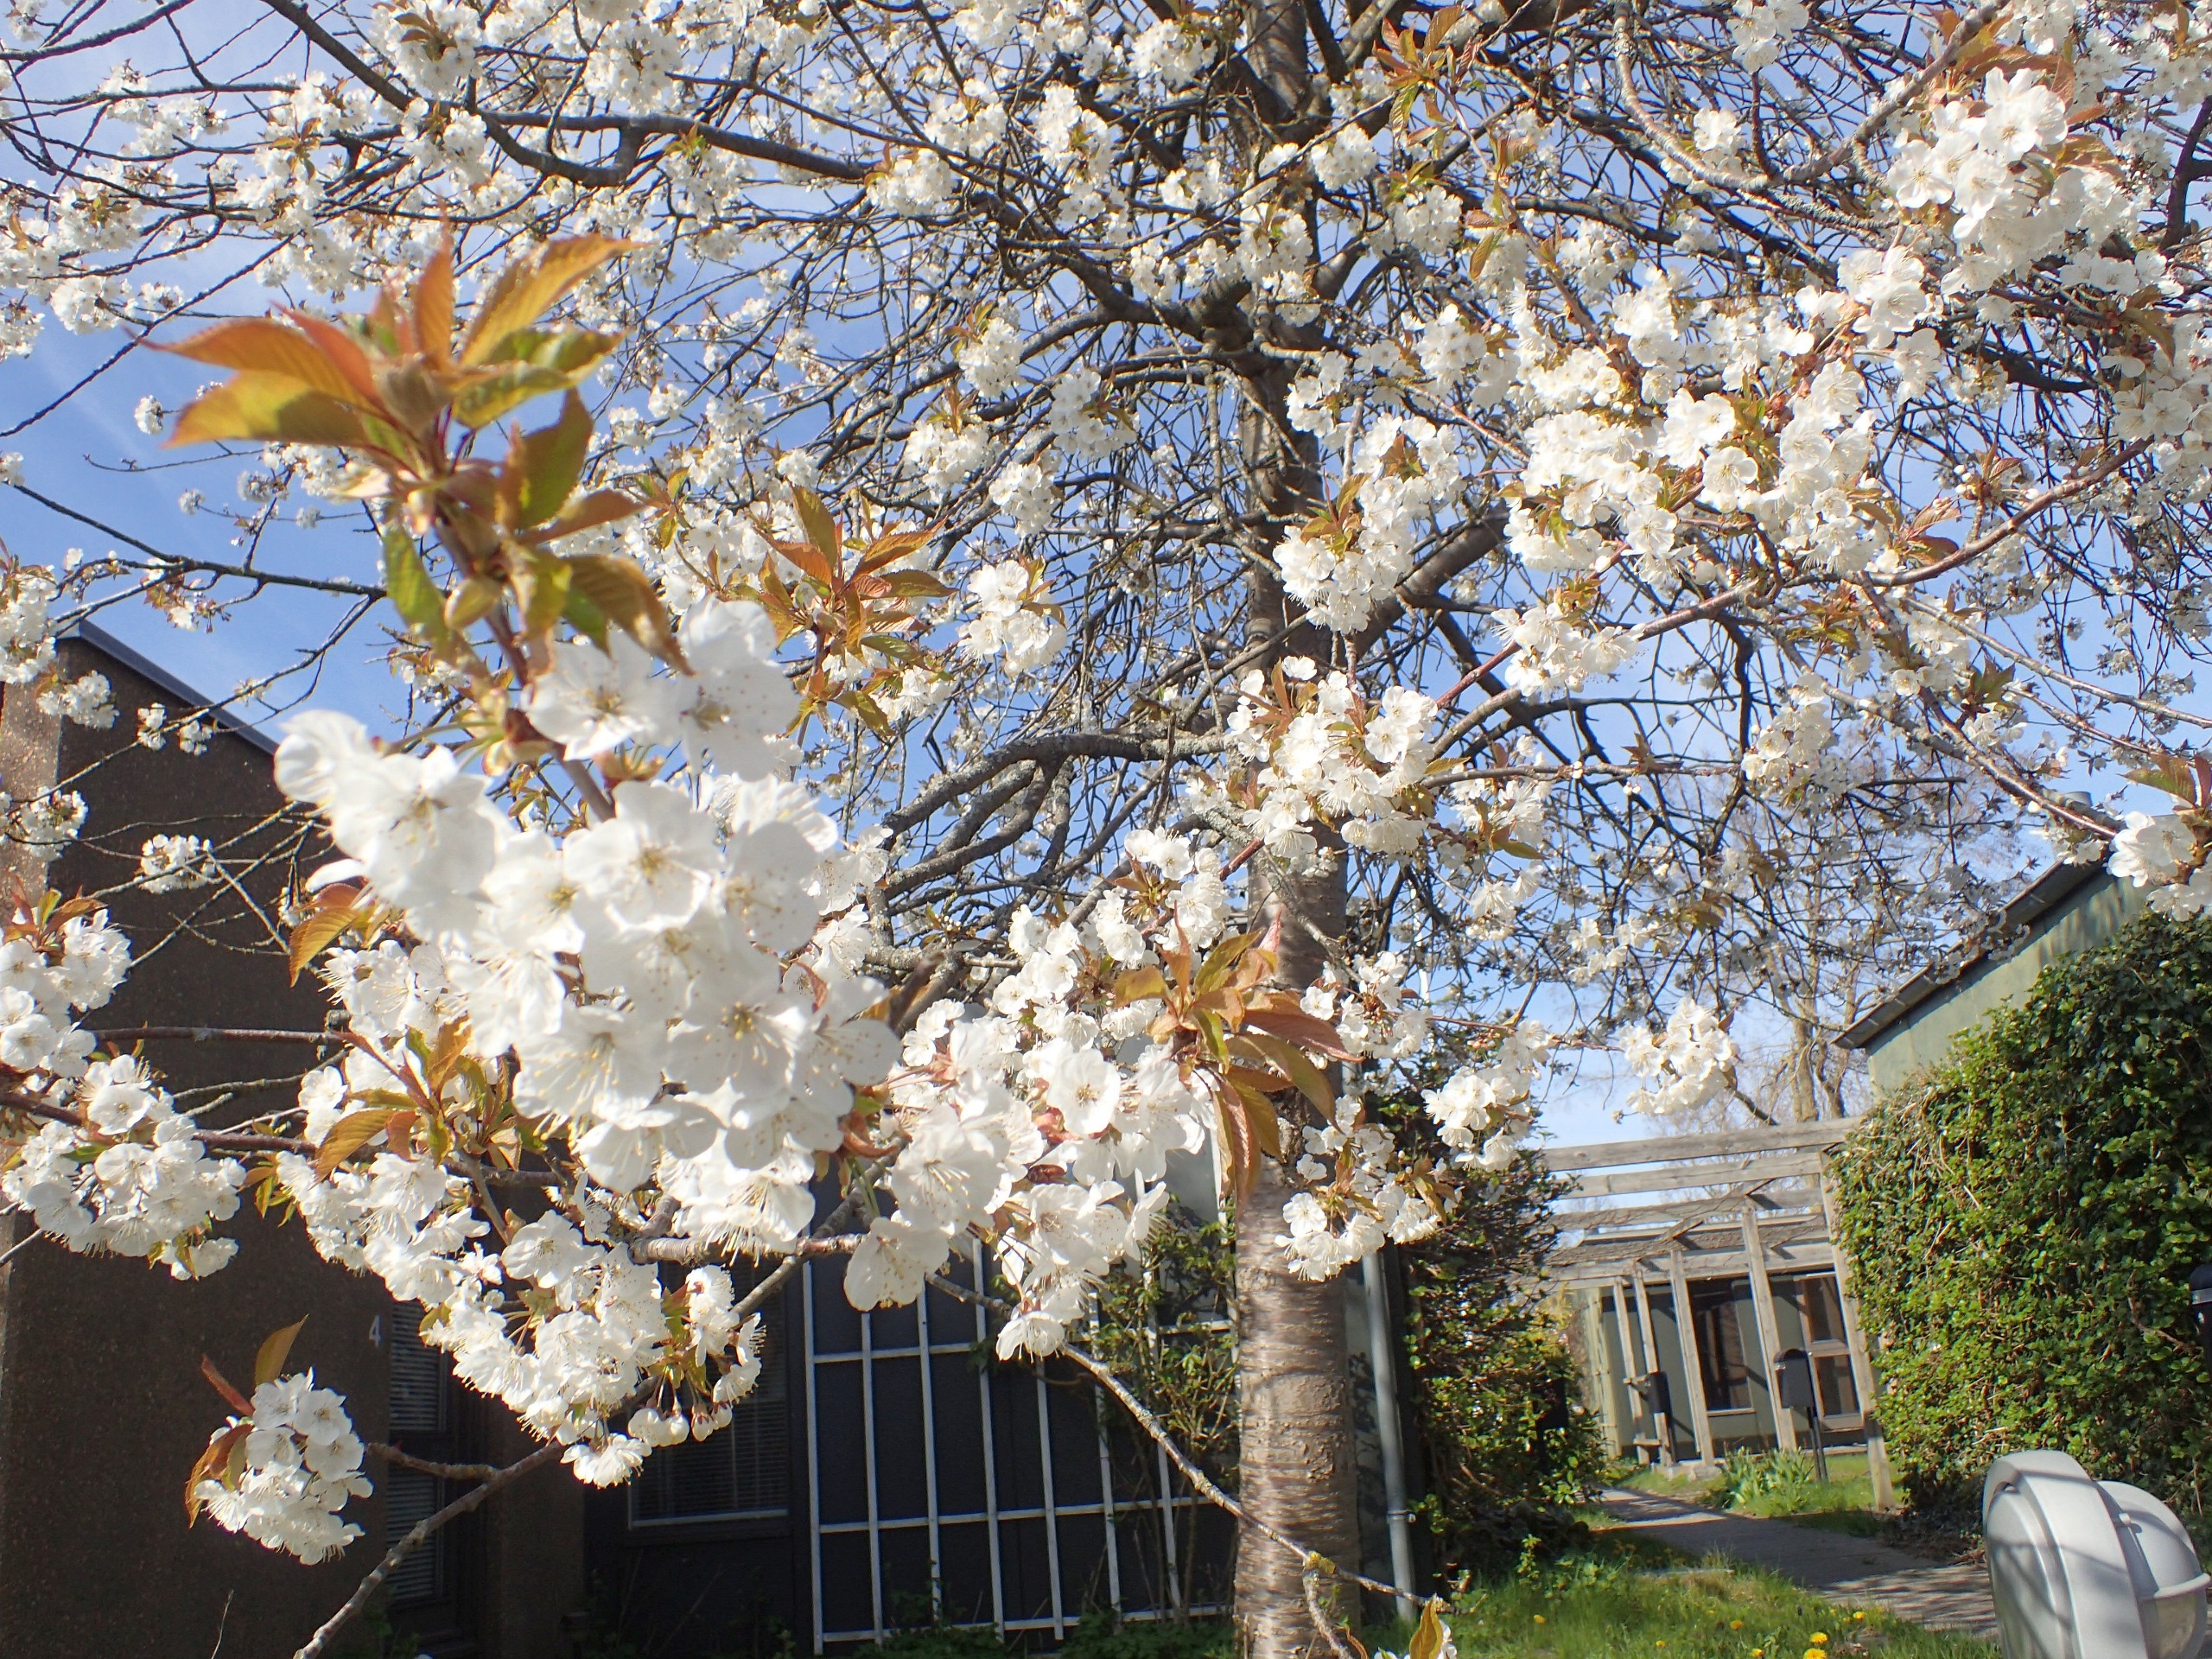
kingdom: Plantae
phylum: Tracheophyta
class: Magnoliopsida
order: Rosales
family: Rosaceae
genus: Prunus
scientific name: Prunus avium
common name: Fugle-kirsebær
